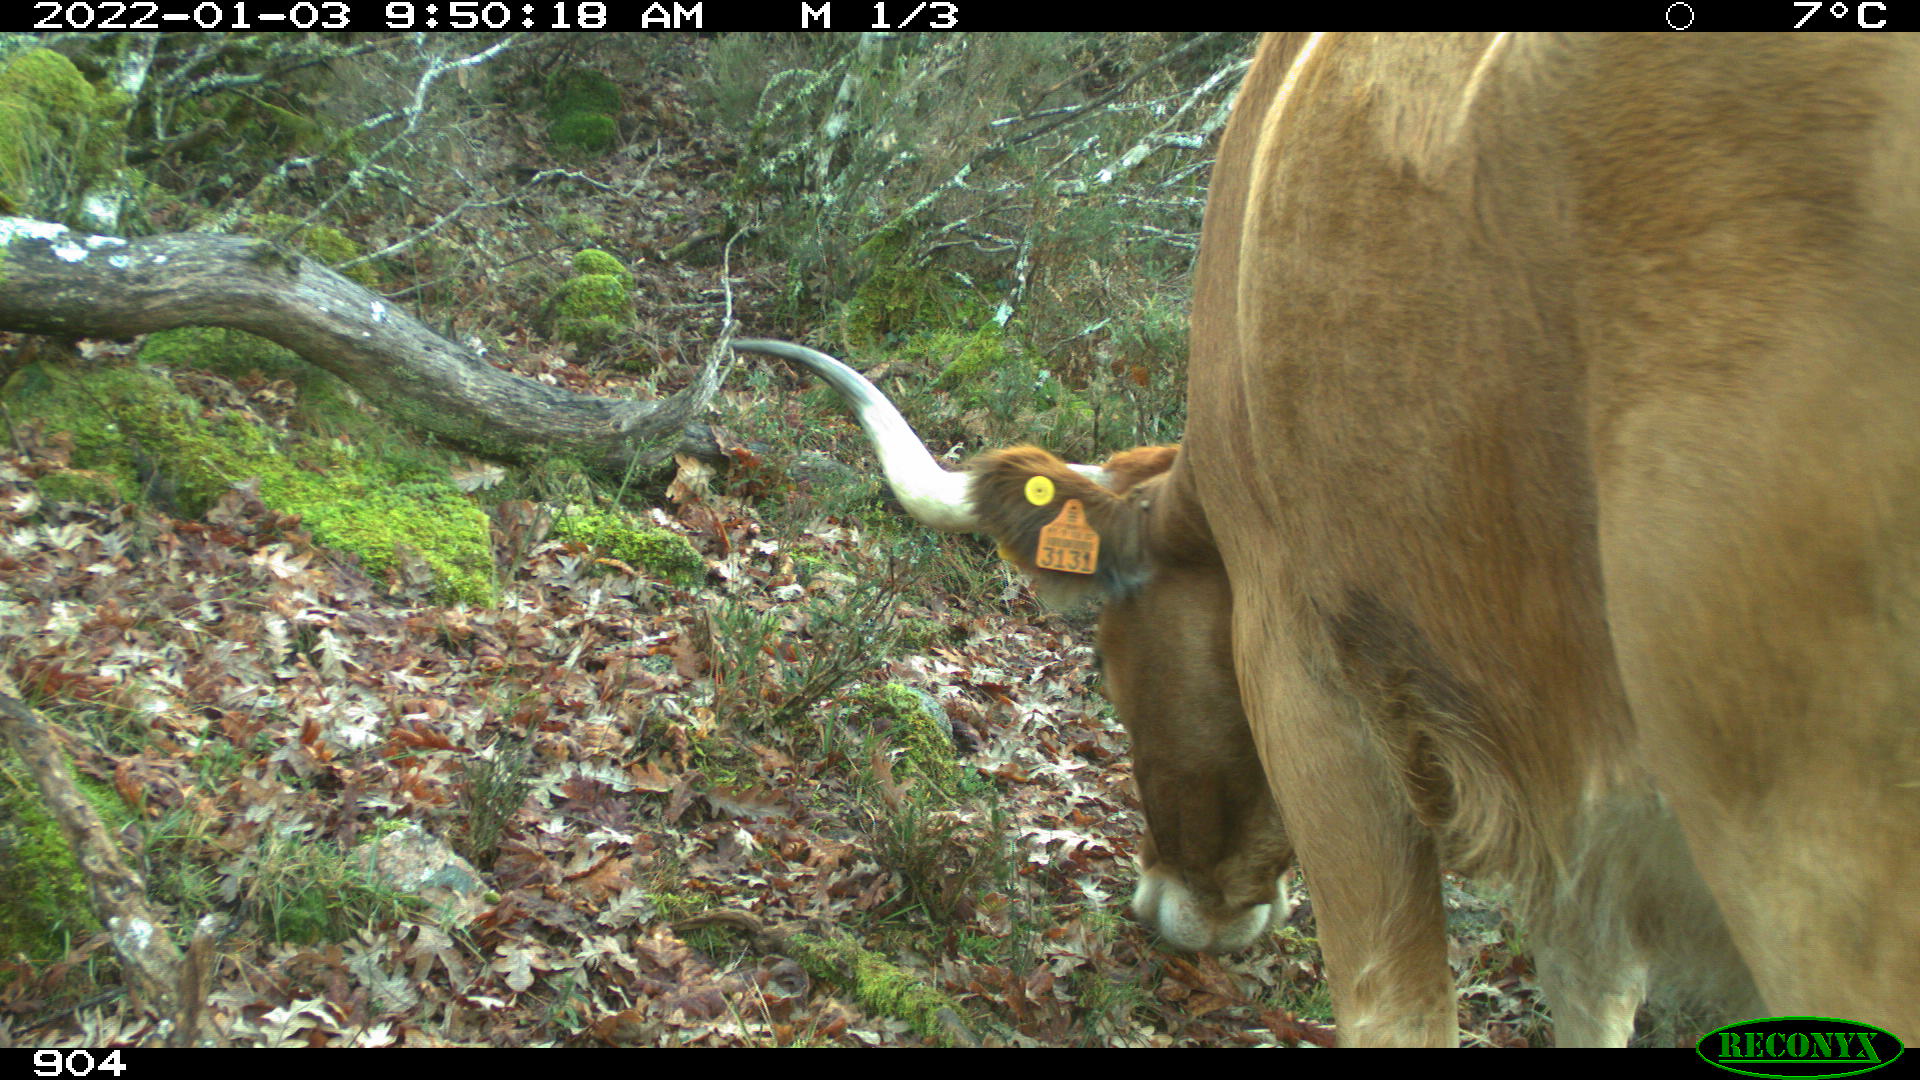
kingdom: Animalia
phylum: Chordata
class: Mammalia
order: Artiodactyla
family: Bovidae
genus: Bos
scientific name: Bos taurus
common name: Domesticated cattle
